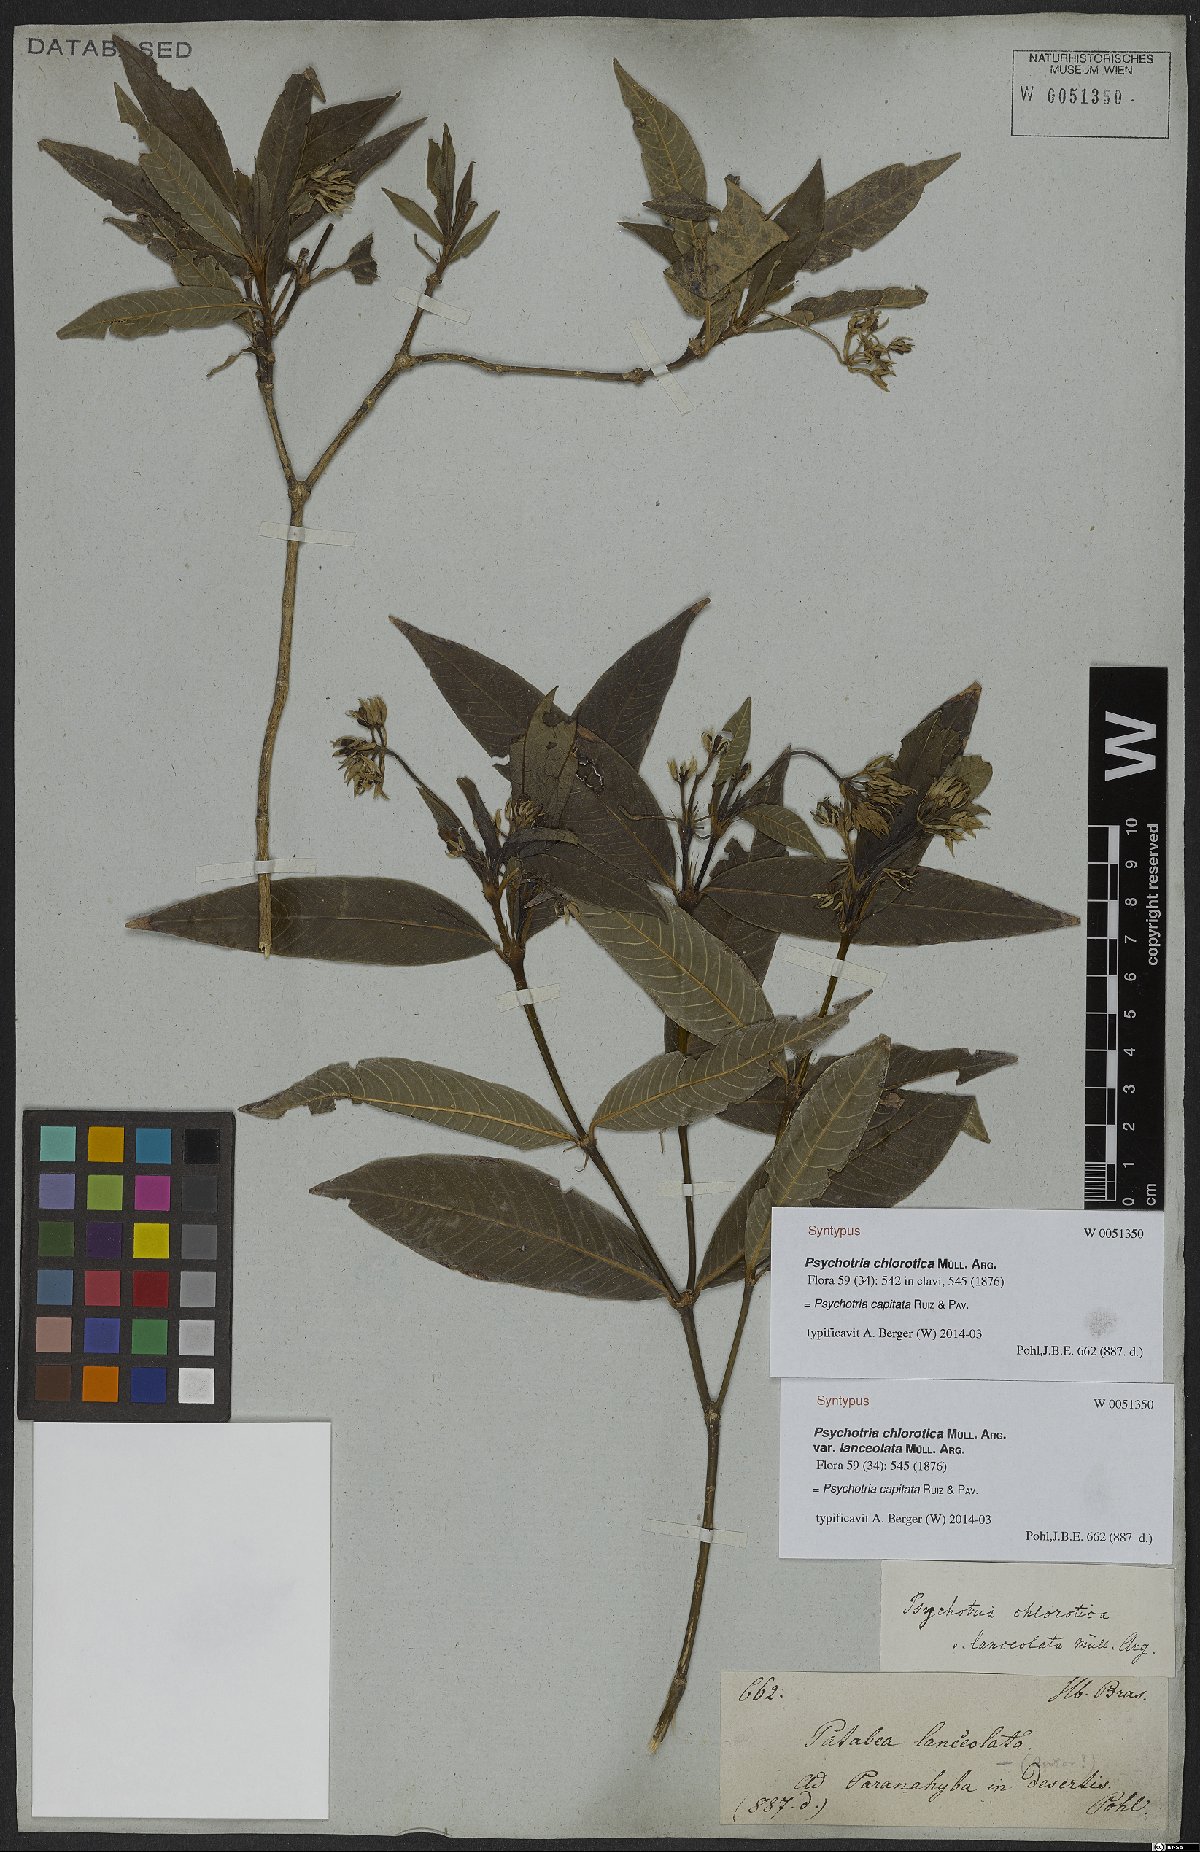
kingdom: Plantae
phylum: Tracheophyta
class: Magnoliopsida
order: Gentianales
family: Rubiaceae
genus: Palicourea
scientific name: Palicourea violacea
